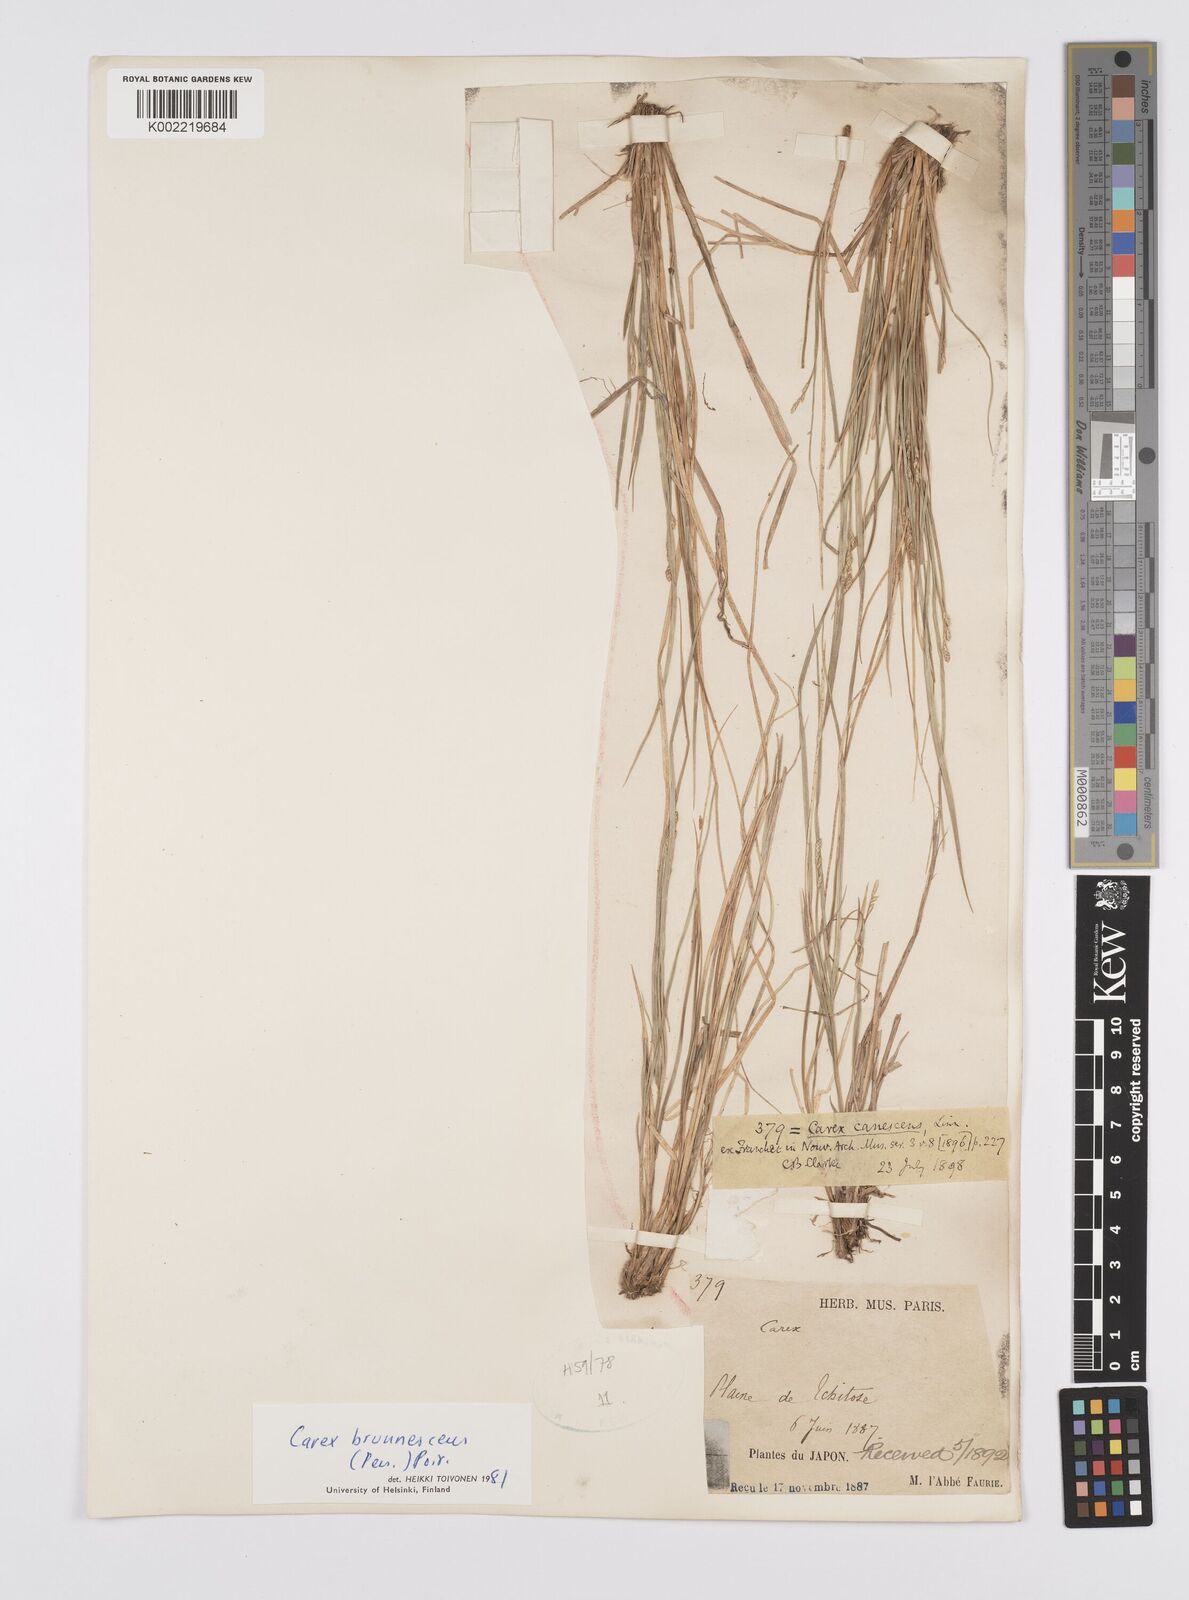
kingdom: Plantae
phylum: Tracheophyta
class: Liliopsida
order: Poales
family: Cyperaceae
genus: Carex
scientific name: Carex brunnescens
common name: Brown sedge
